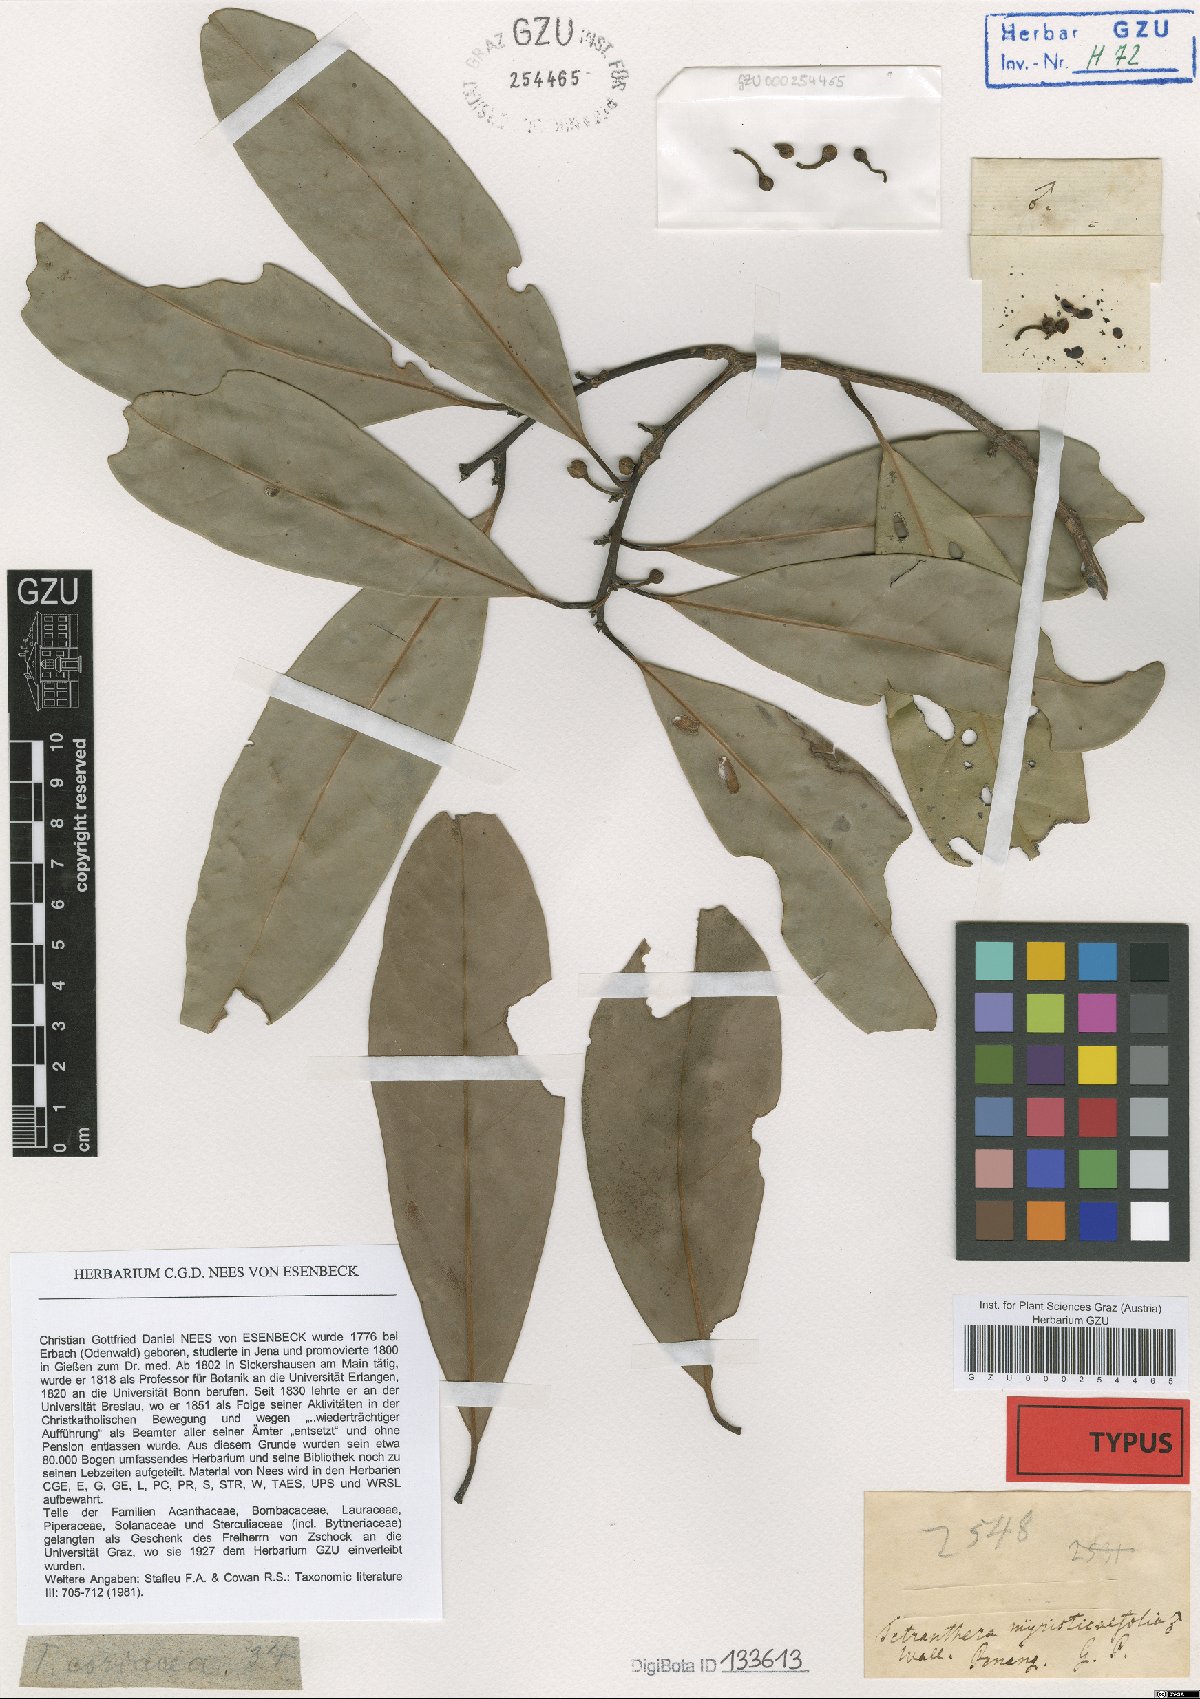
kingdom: Plantae
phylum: Tracheophyta
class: Magnoliopsida
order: Laurales
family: Lauraceae
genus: Litsea
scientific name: Litsea myristicifolia
